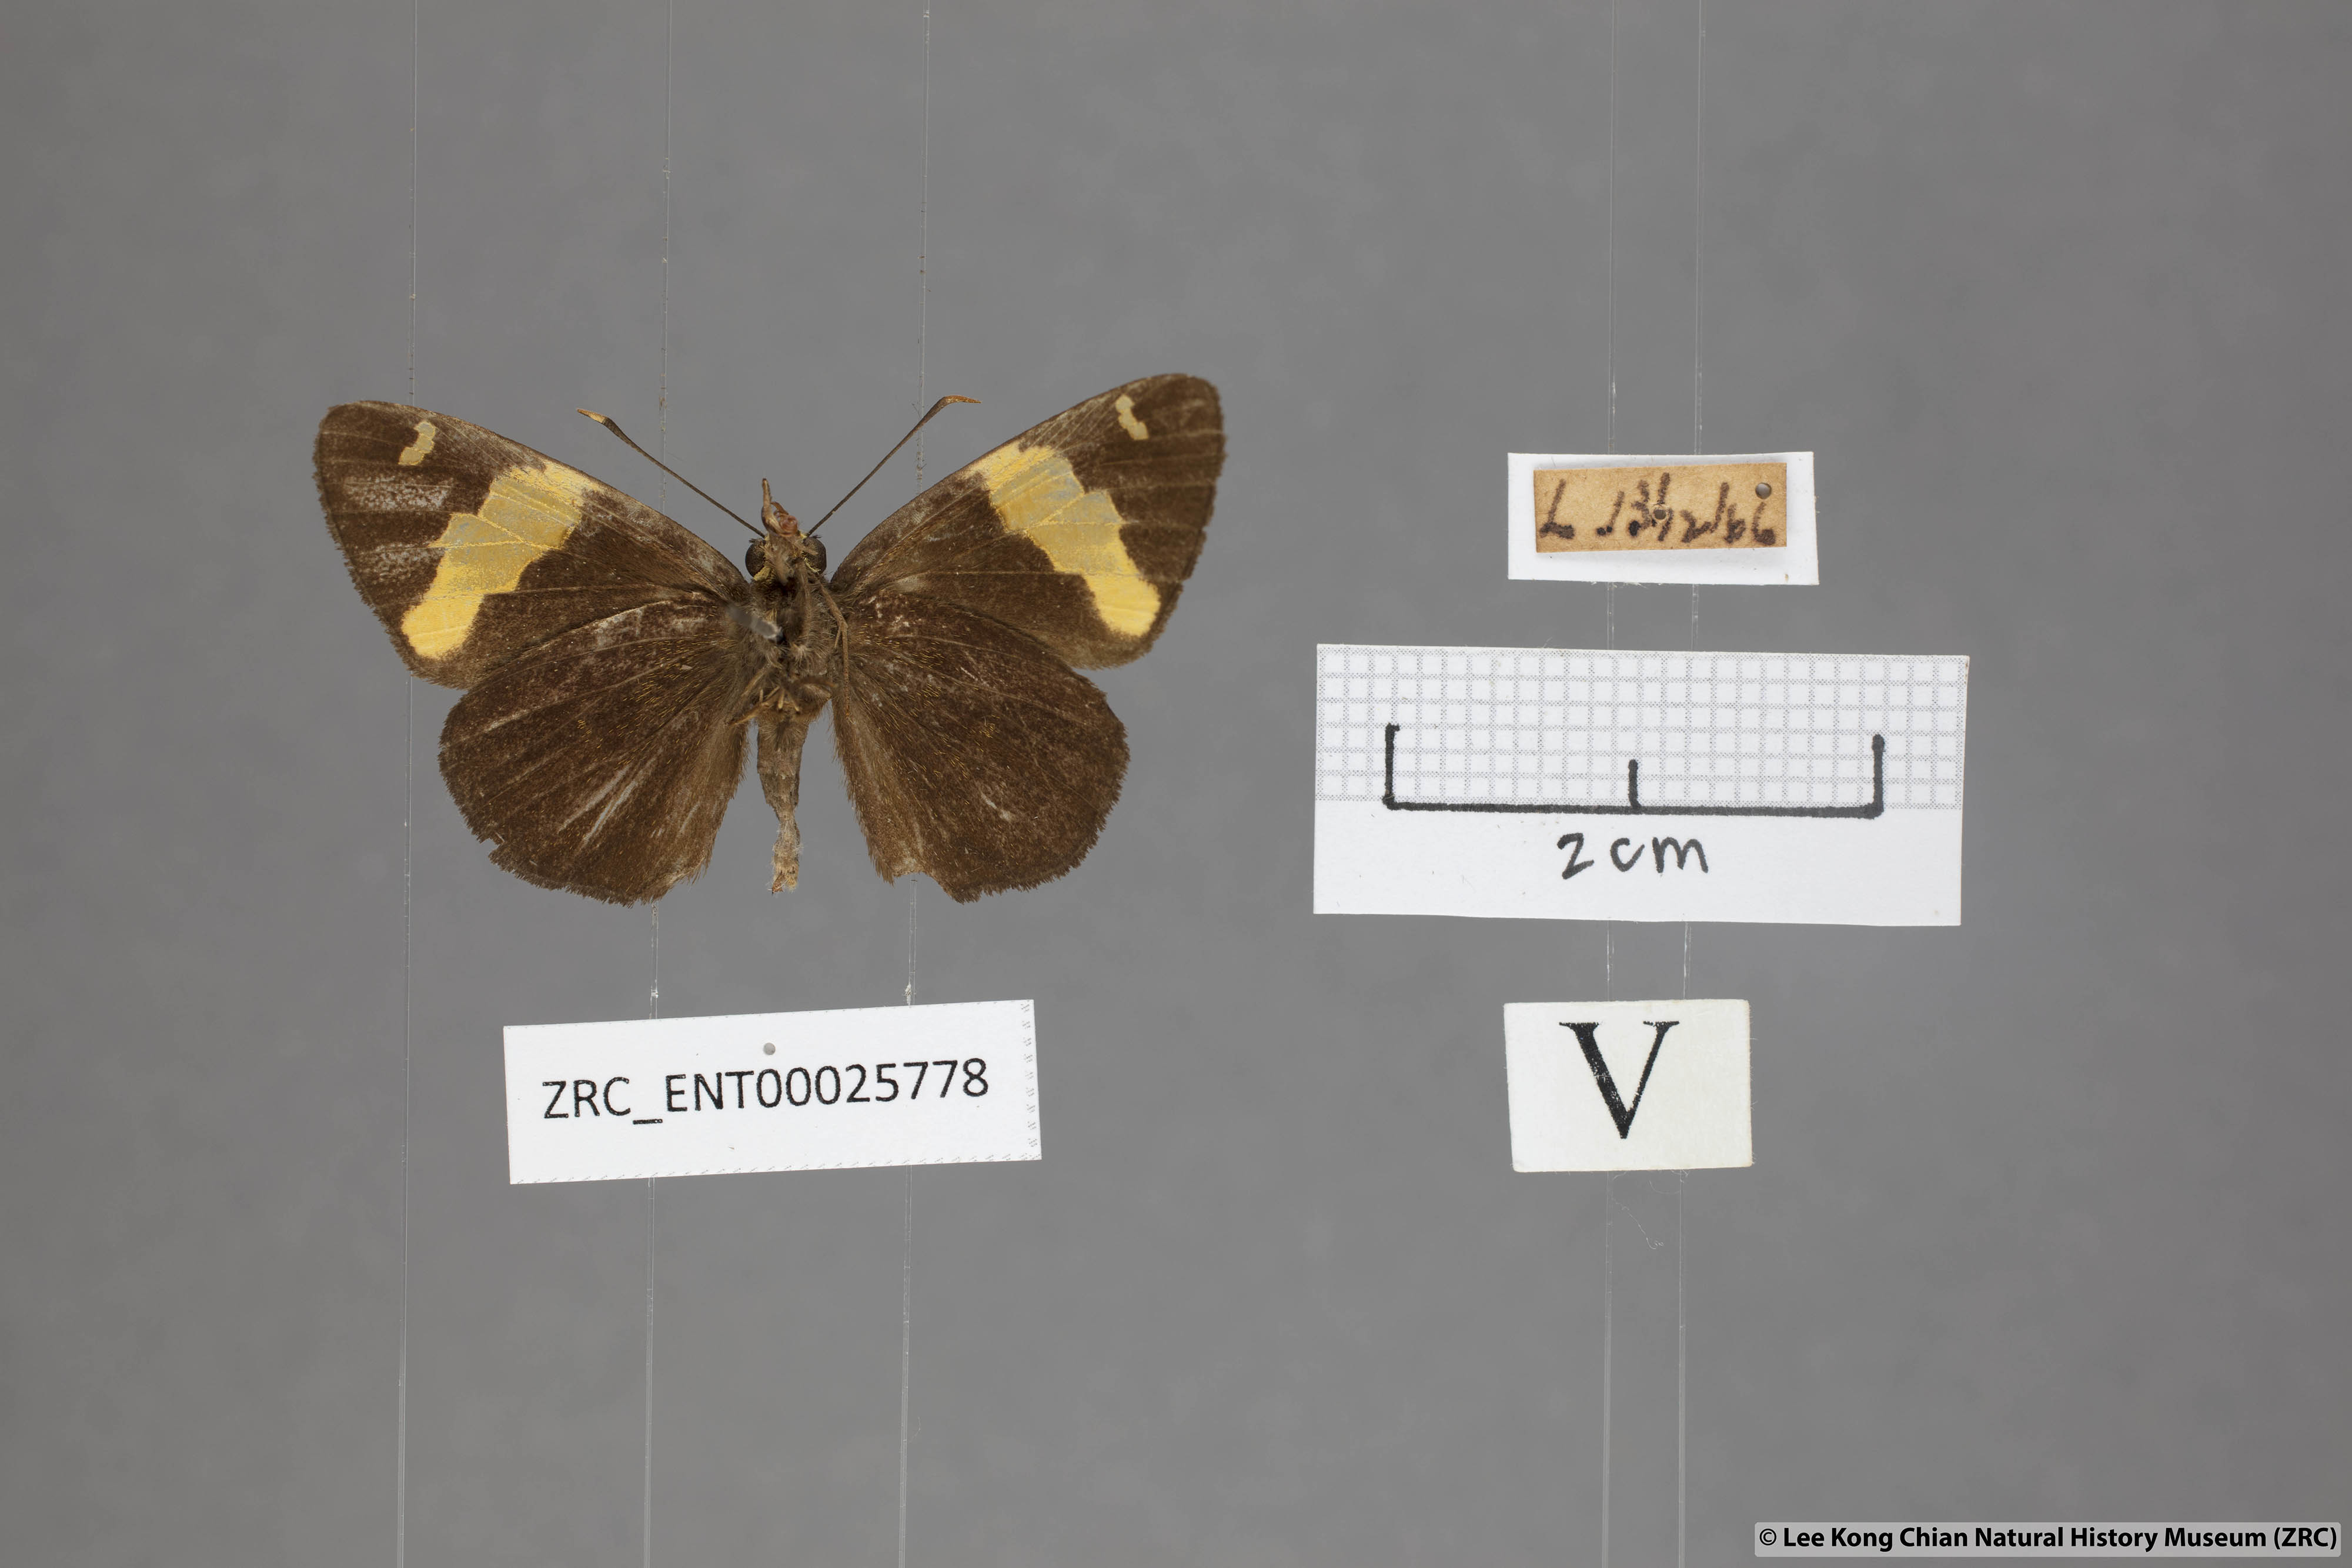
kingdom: Animalia
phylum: Arthropoda
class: Insecta
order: Lepidoptera
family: Hesperiidae
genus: Celaenorrhinus
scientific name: Celaenorrhinus aurivittata
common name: Dark yellow-banded flat
